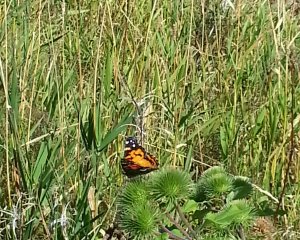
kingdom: Animalia
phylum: Arthropoda
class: Insecta
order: Lepidoptera
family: Nymphalidae
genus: Vanessa
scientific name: Vanessa virginiensis
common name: American Lady
